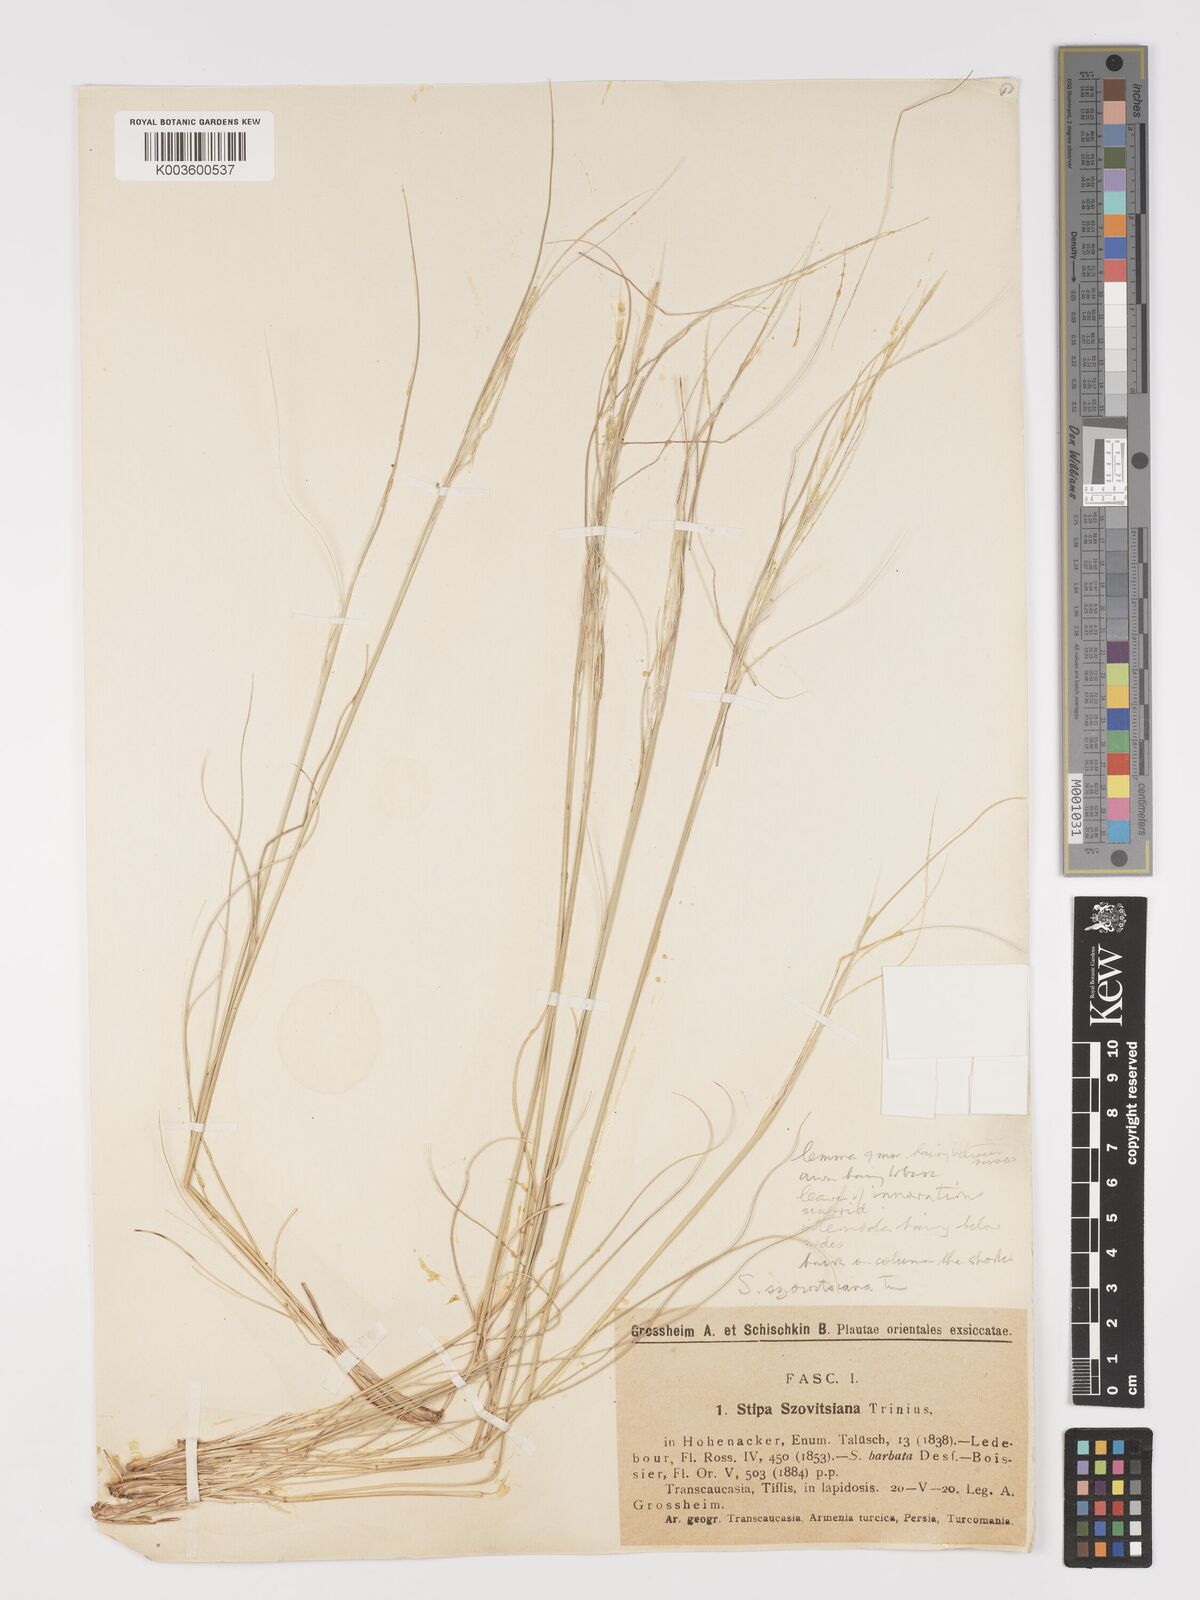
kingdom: Plantae
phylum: Tracheophyta
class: Liliopsida
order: Poales
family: Poaceae
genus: Stipa
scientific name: Stipa barbata
